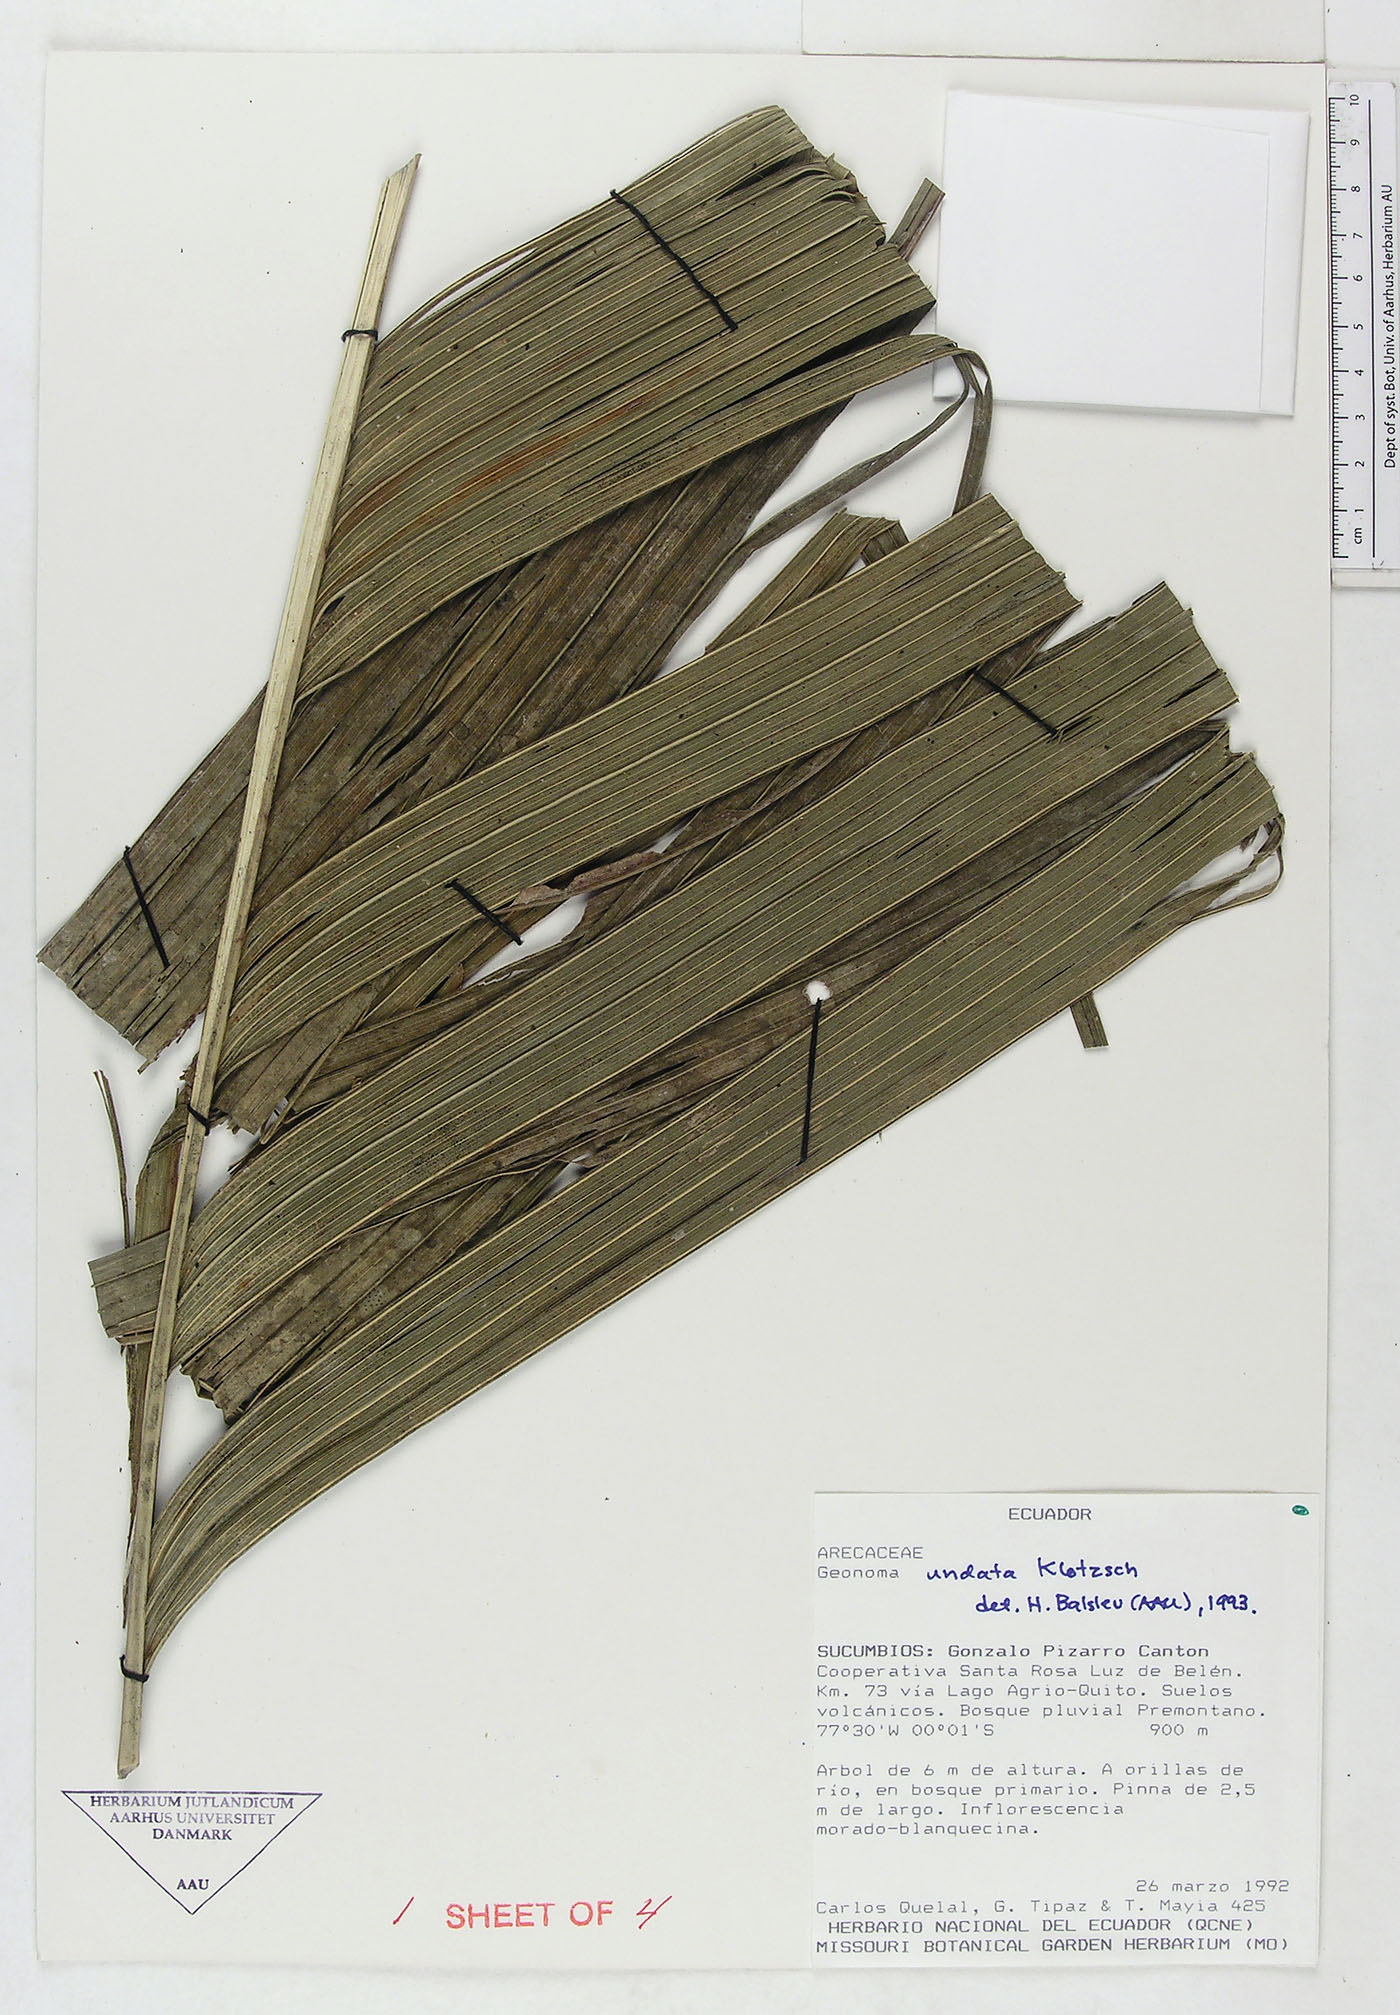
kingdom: Plantae
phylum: Tracheophyta
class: Liliopsida
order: Arecales
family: Arecaceae
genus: Geonoma
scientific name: Geonoma undata
